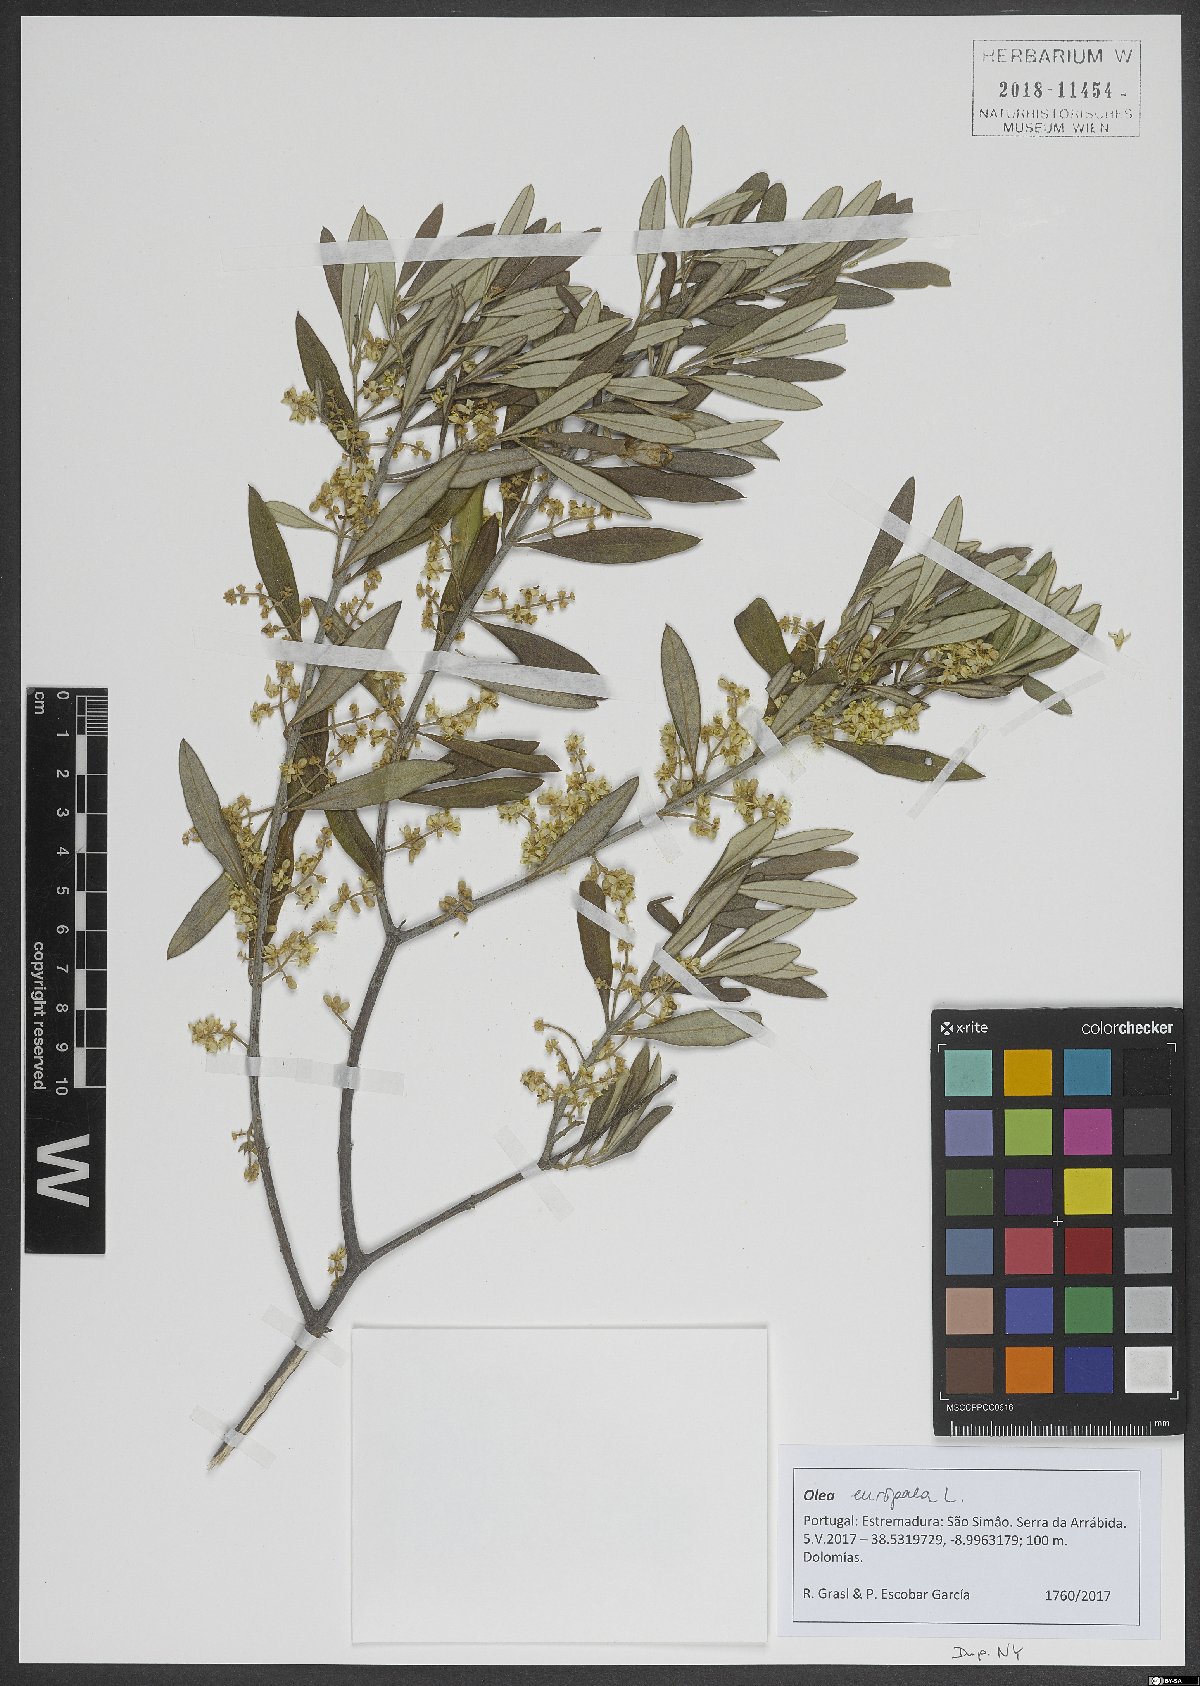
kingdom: Plantae
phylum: Tracheophyta
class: Magnoliopsida
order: Lamiales
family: Oleaceae
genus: Olea
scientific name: Olea europaea
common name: Olive
